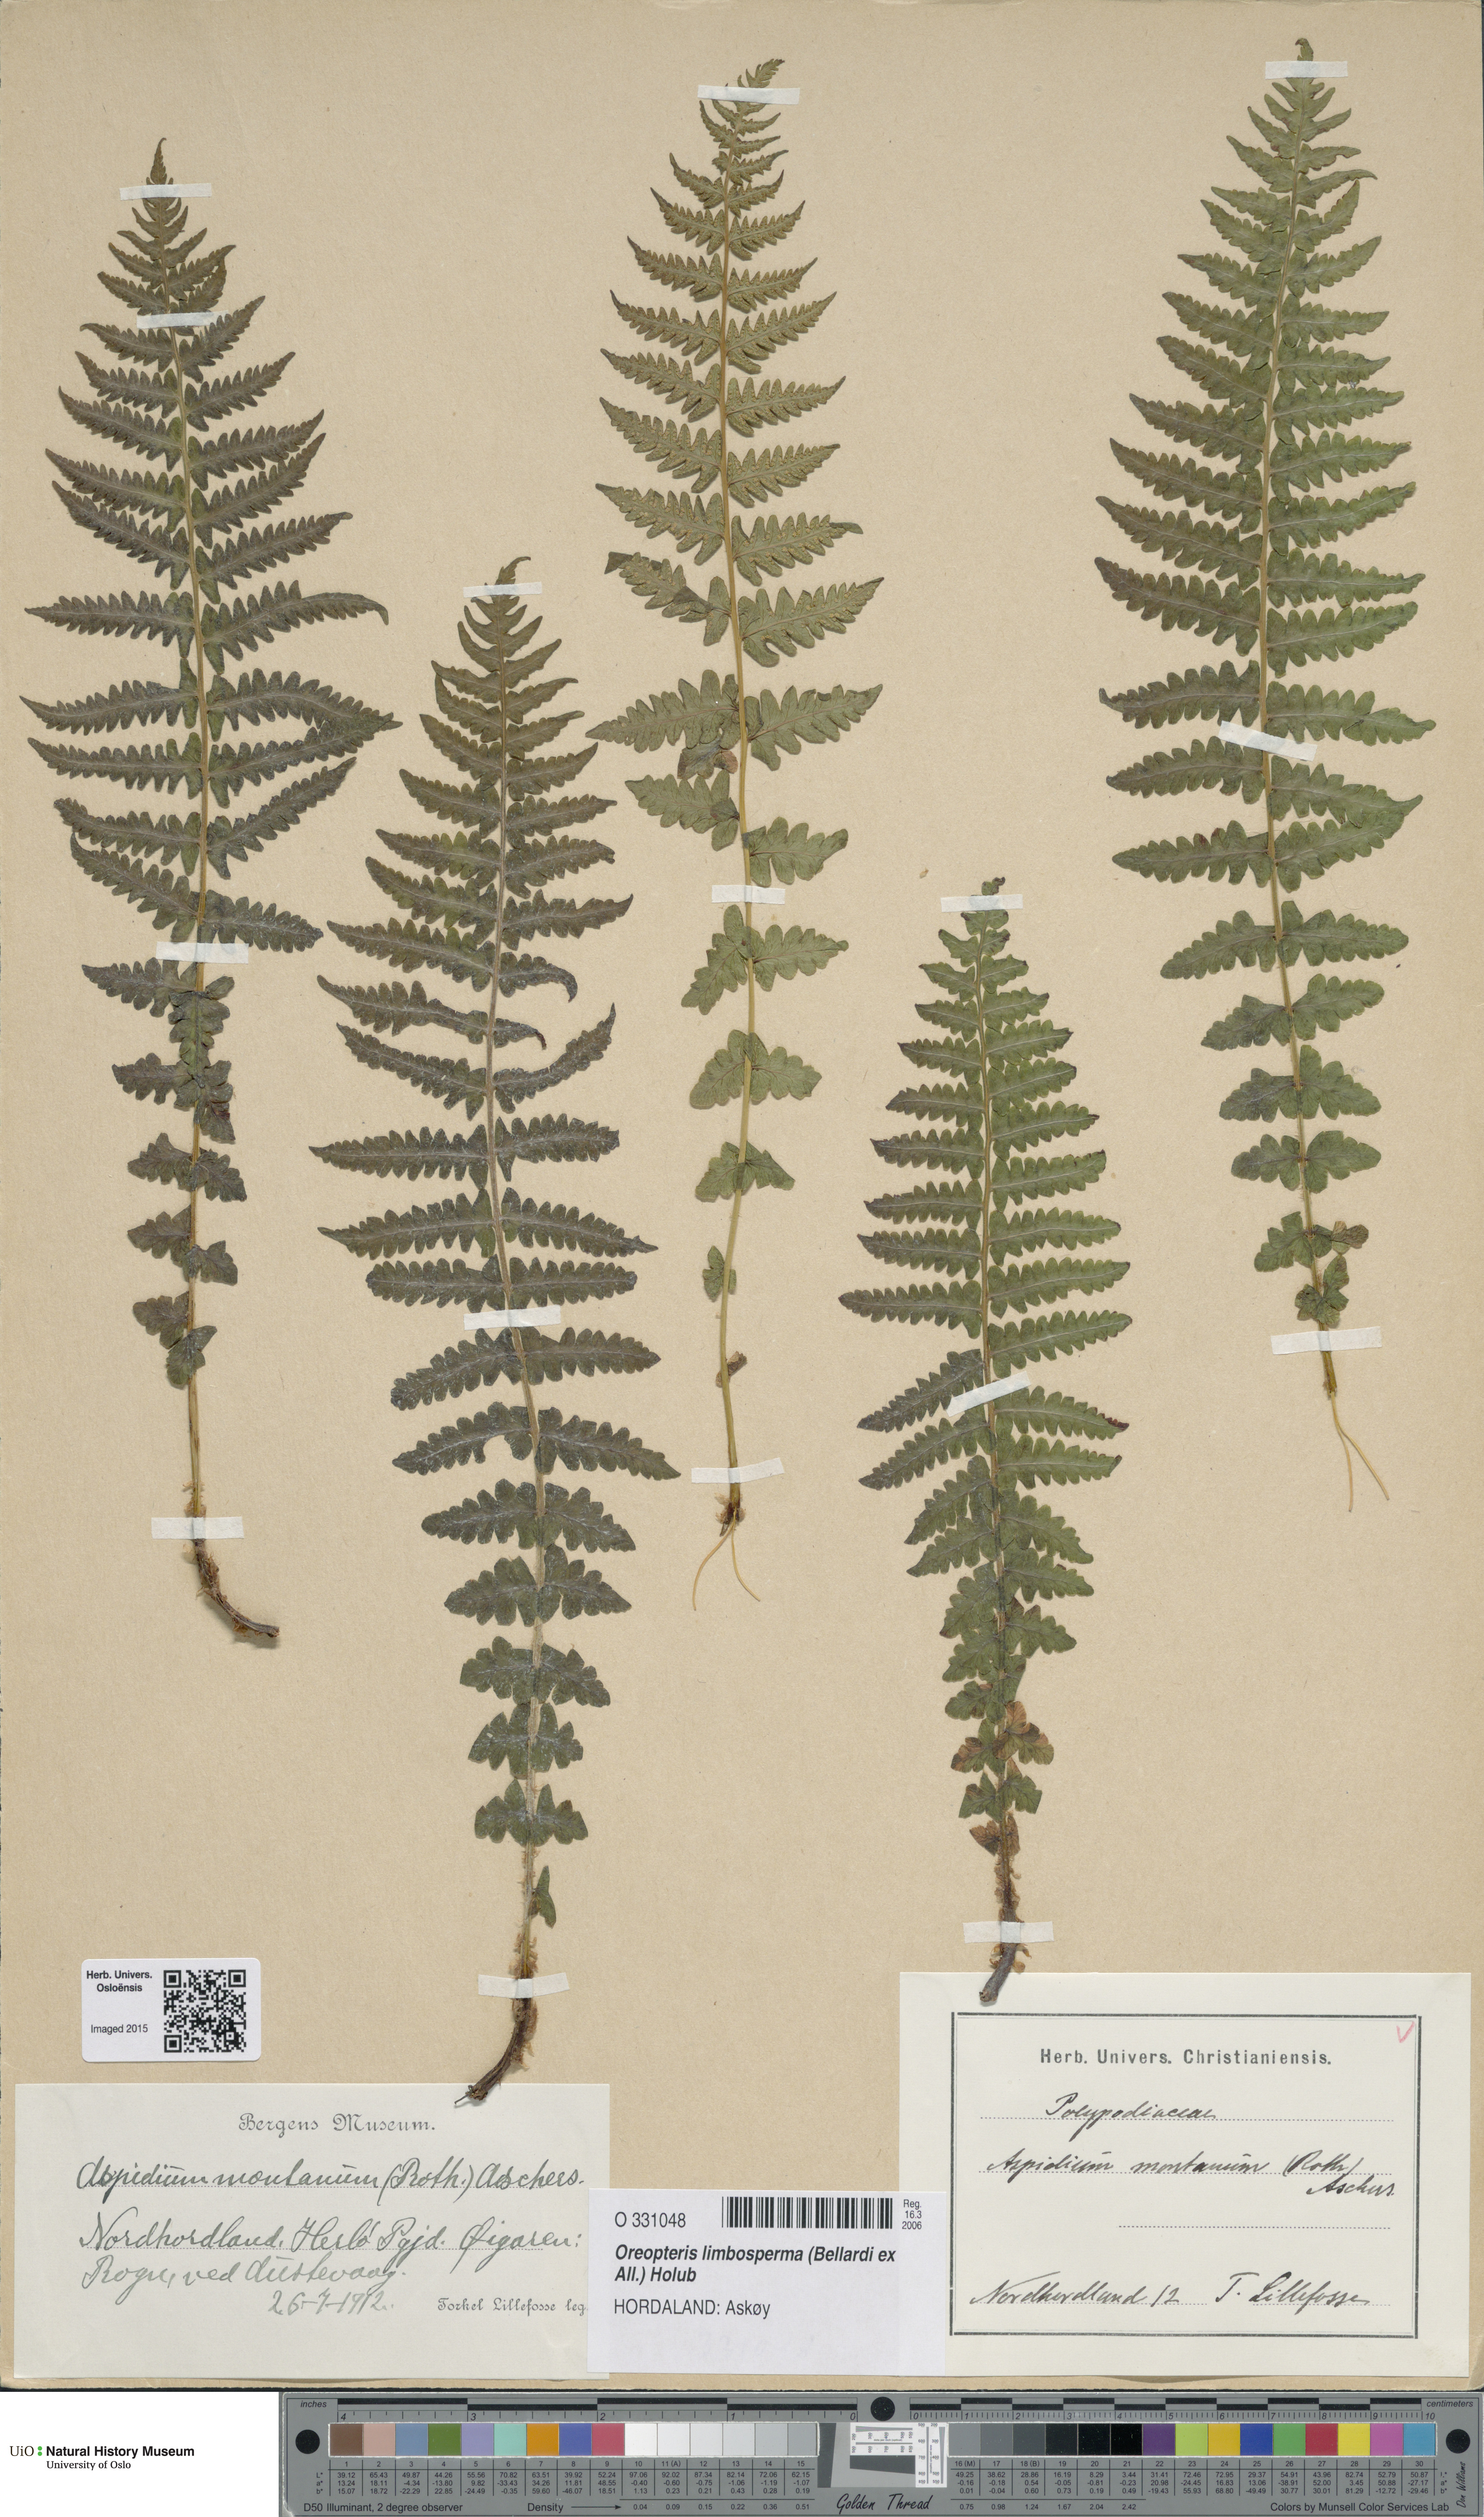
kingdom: Plantae
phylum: Tracheophyta
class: Polypodiopsida
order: Polypodiales
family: Thelypteridaceae
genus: Oreopteris
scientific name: Oreopteris limbosperma
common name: Lemon-scented fern
